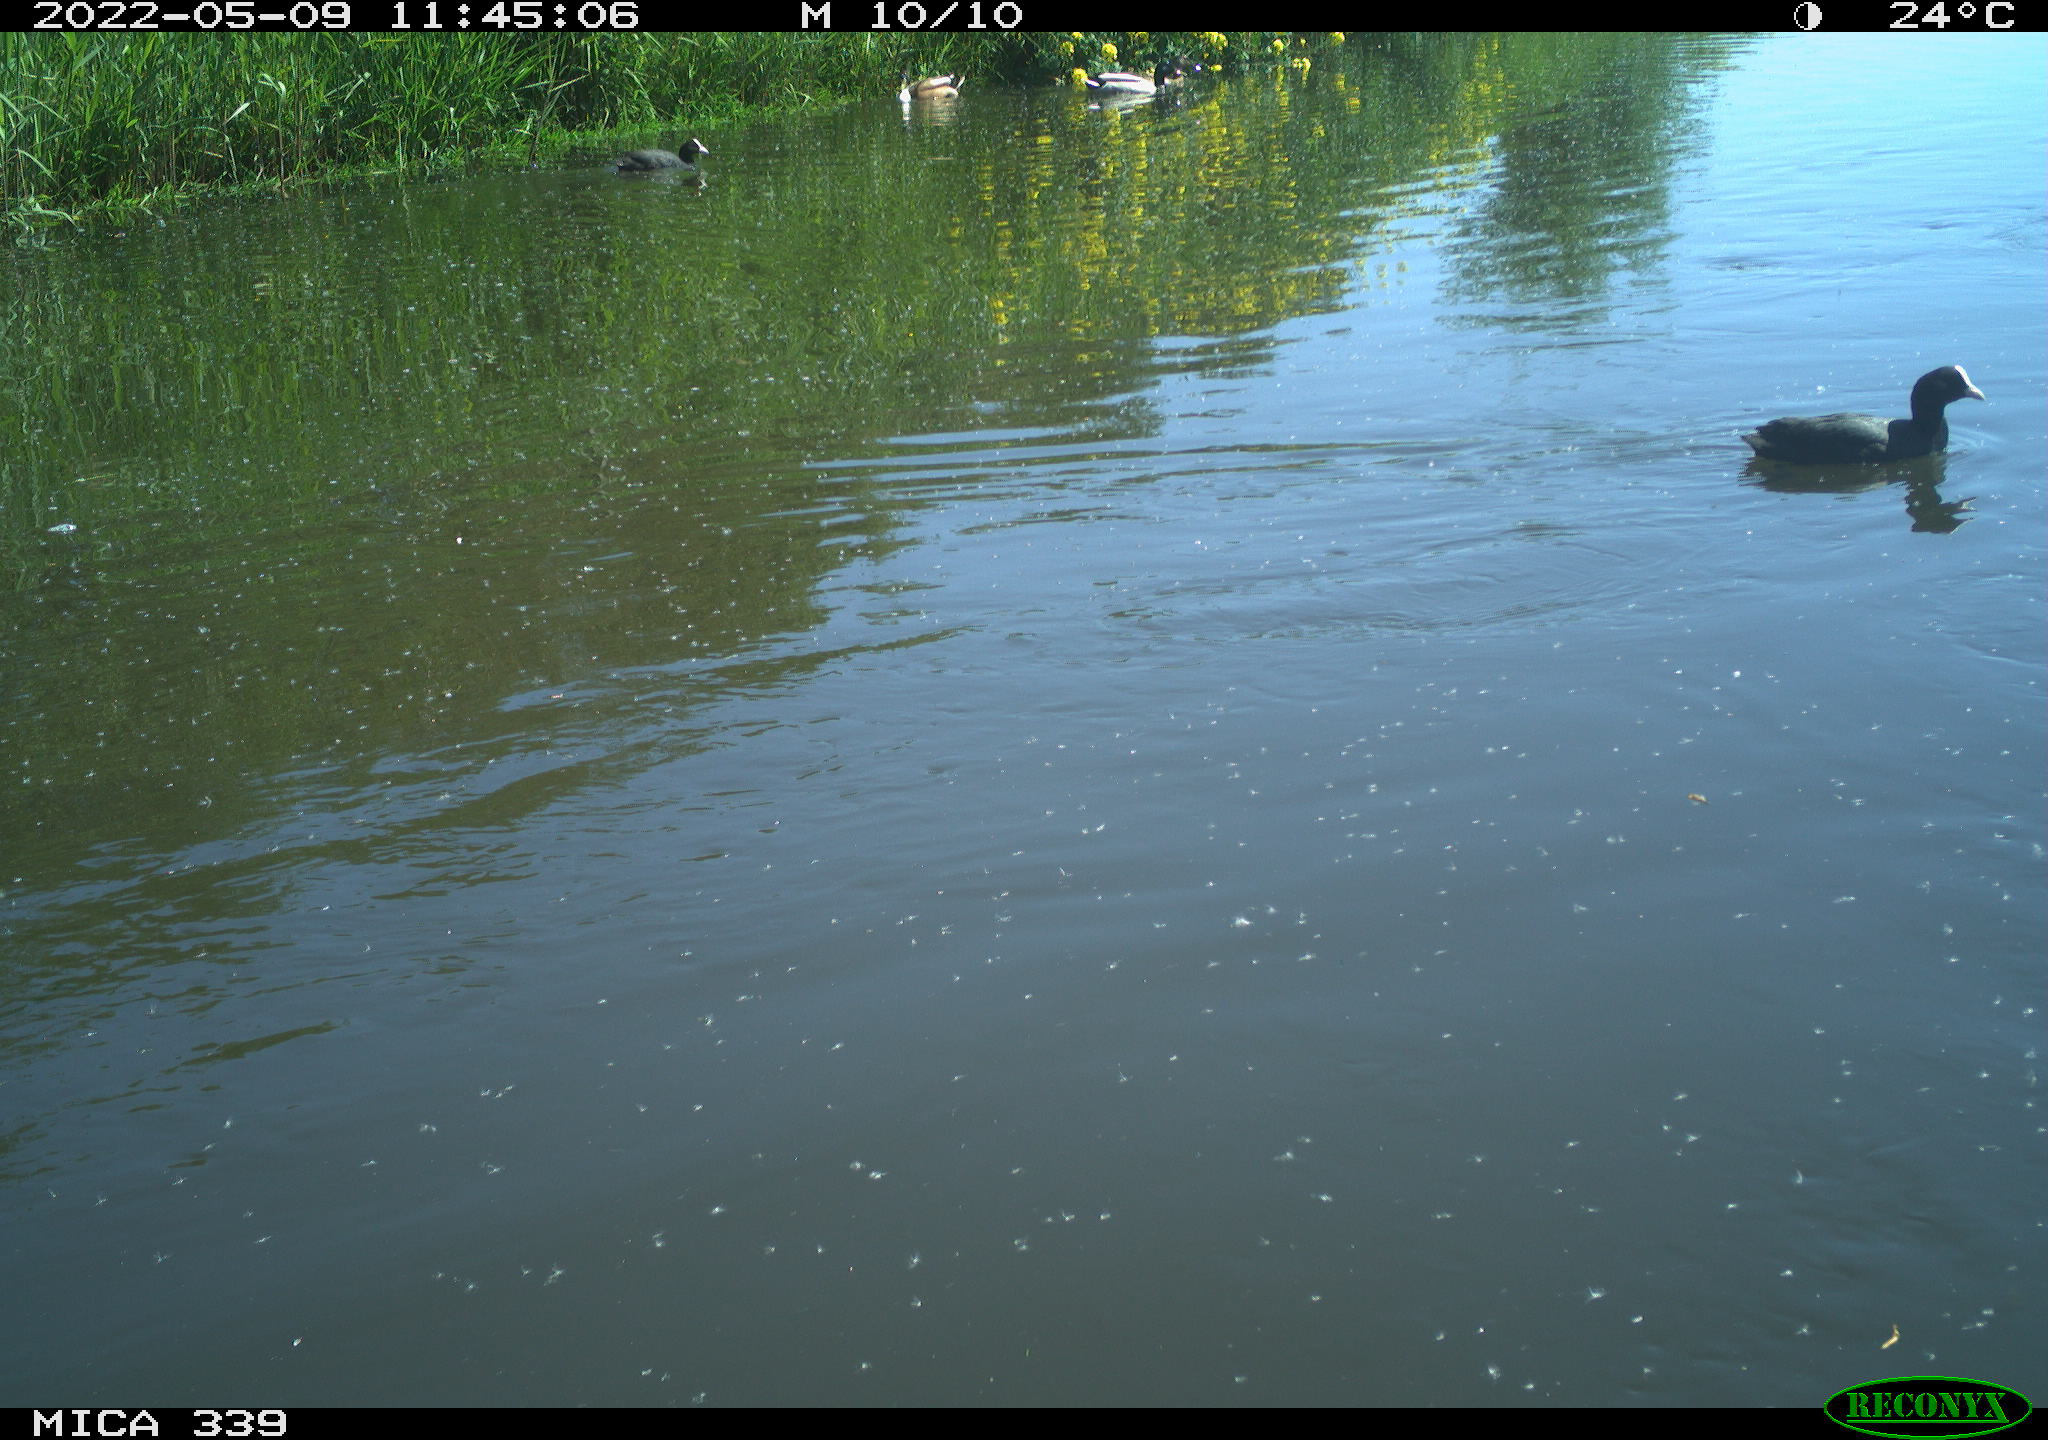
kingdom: Animalia
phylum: Chordata
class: Aves
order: Anseriformes
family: Anatidae
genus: Anas
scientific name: Anas platyrhynchos
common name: Mallard
